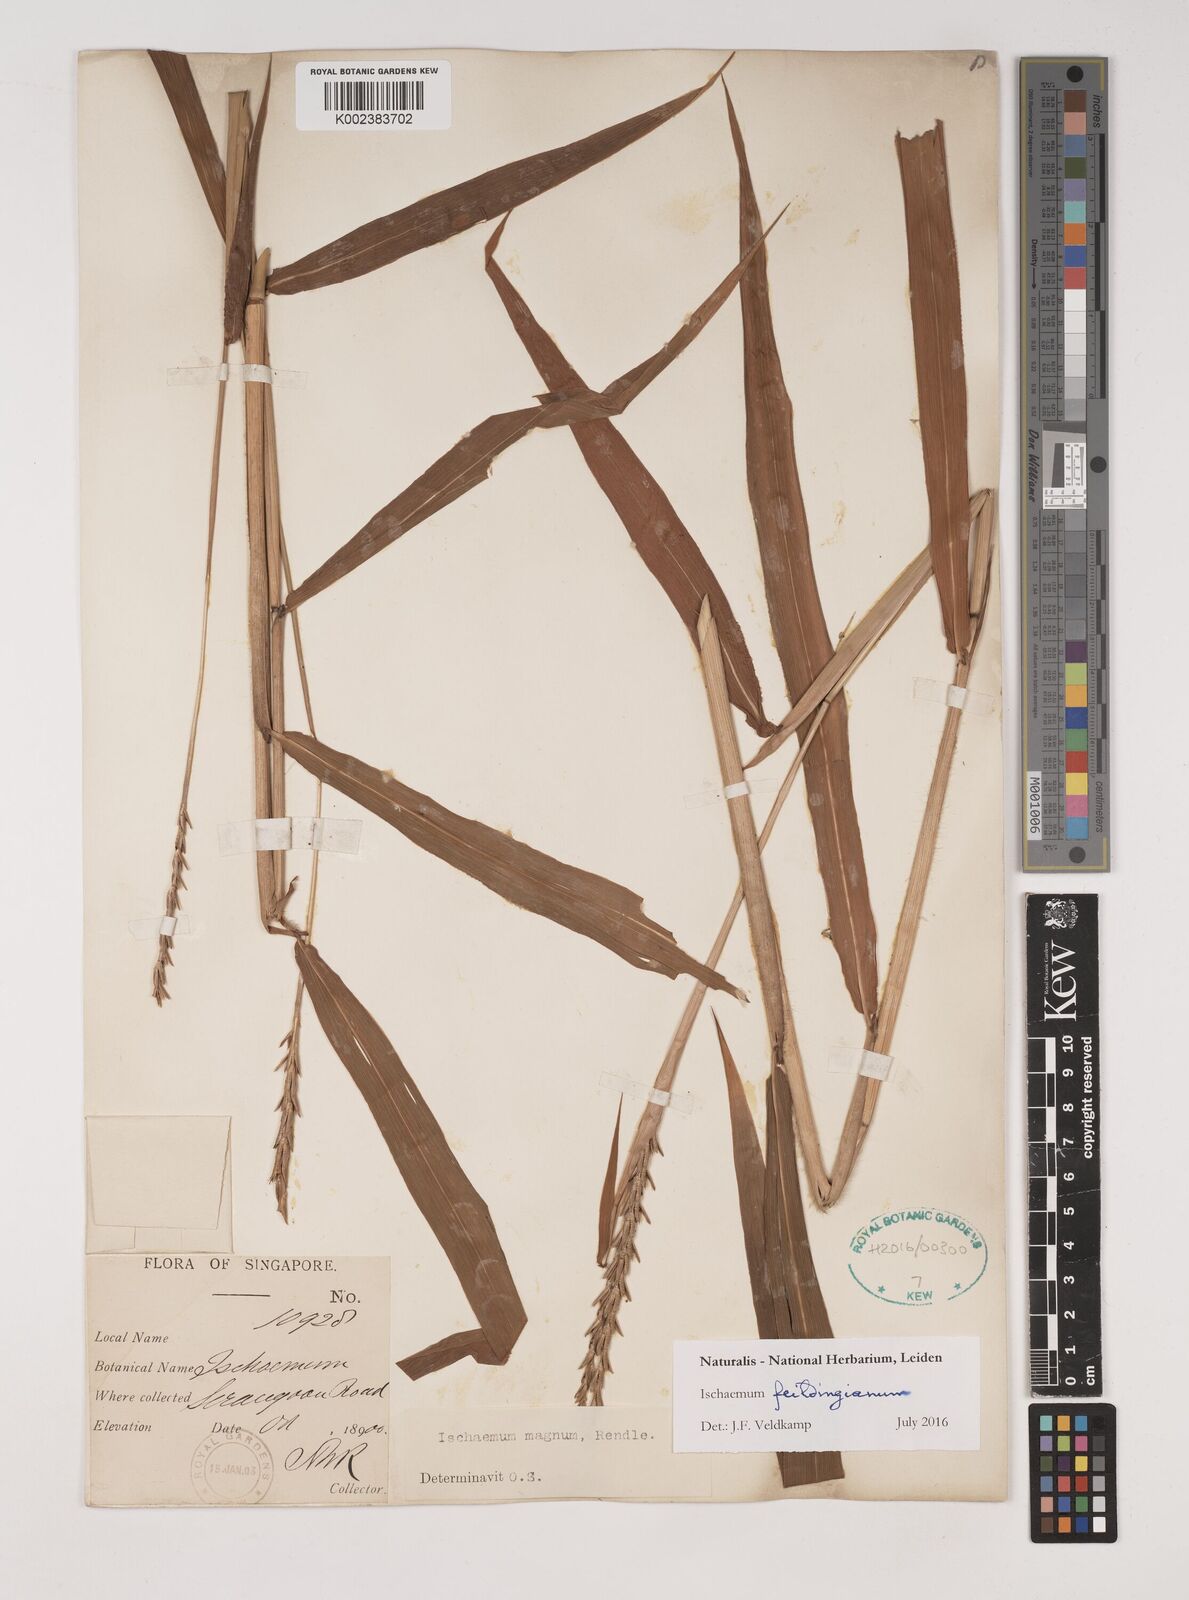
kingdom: Plantae
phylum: Tracheophyta
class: Liliopsida
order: Poales
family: Poaceae
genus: Ischaemum
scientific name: Ischaemum
